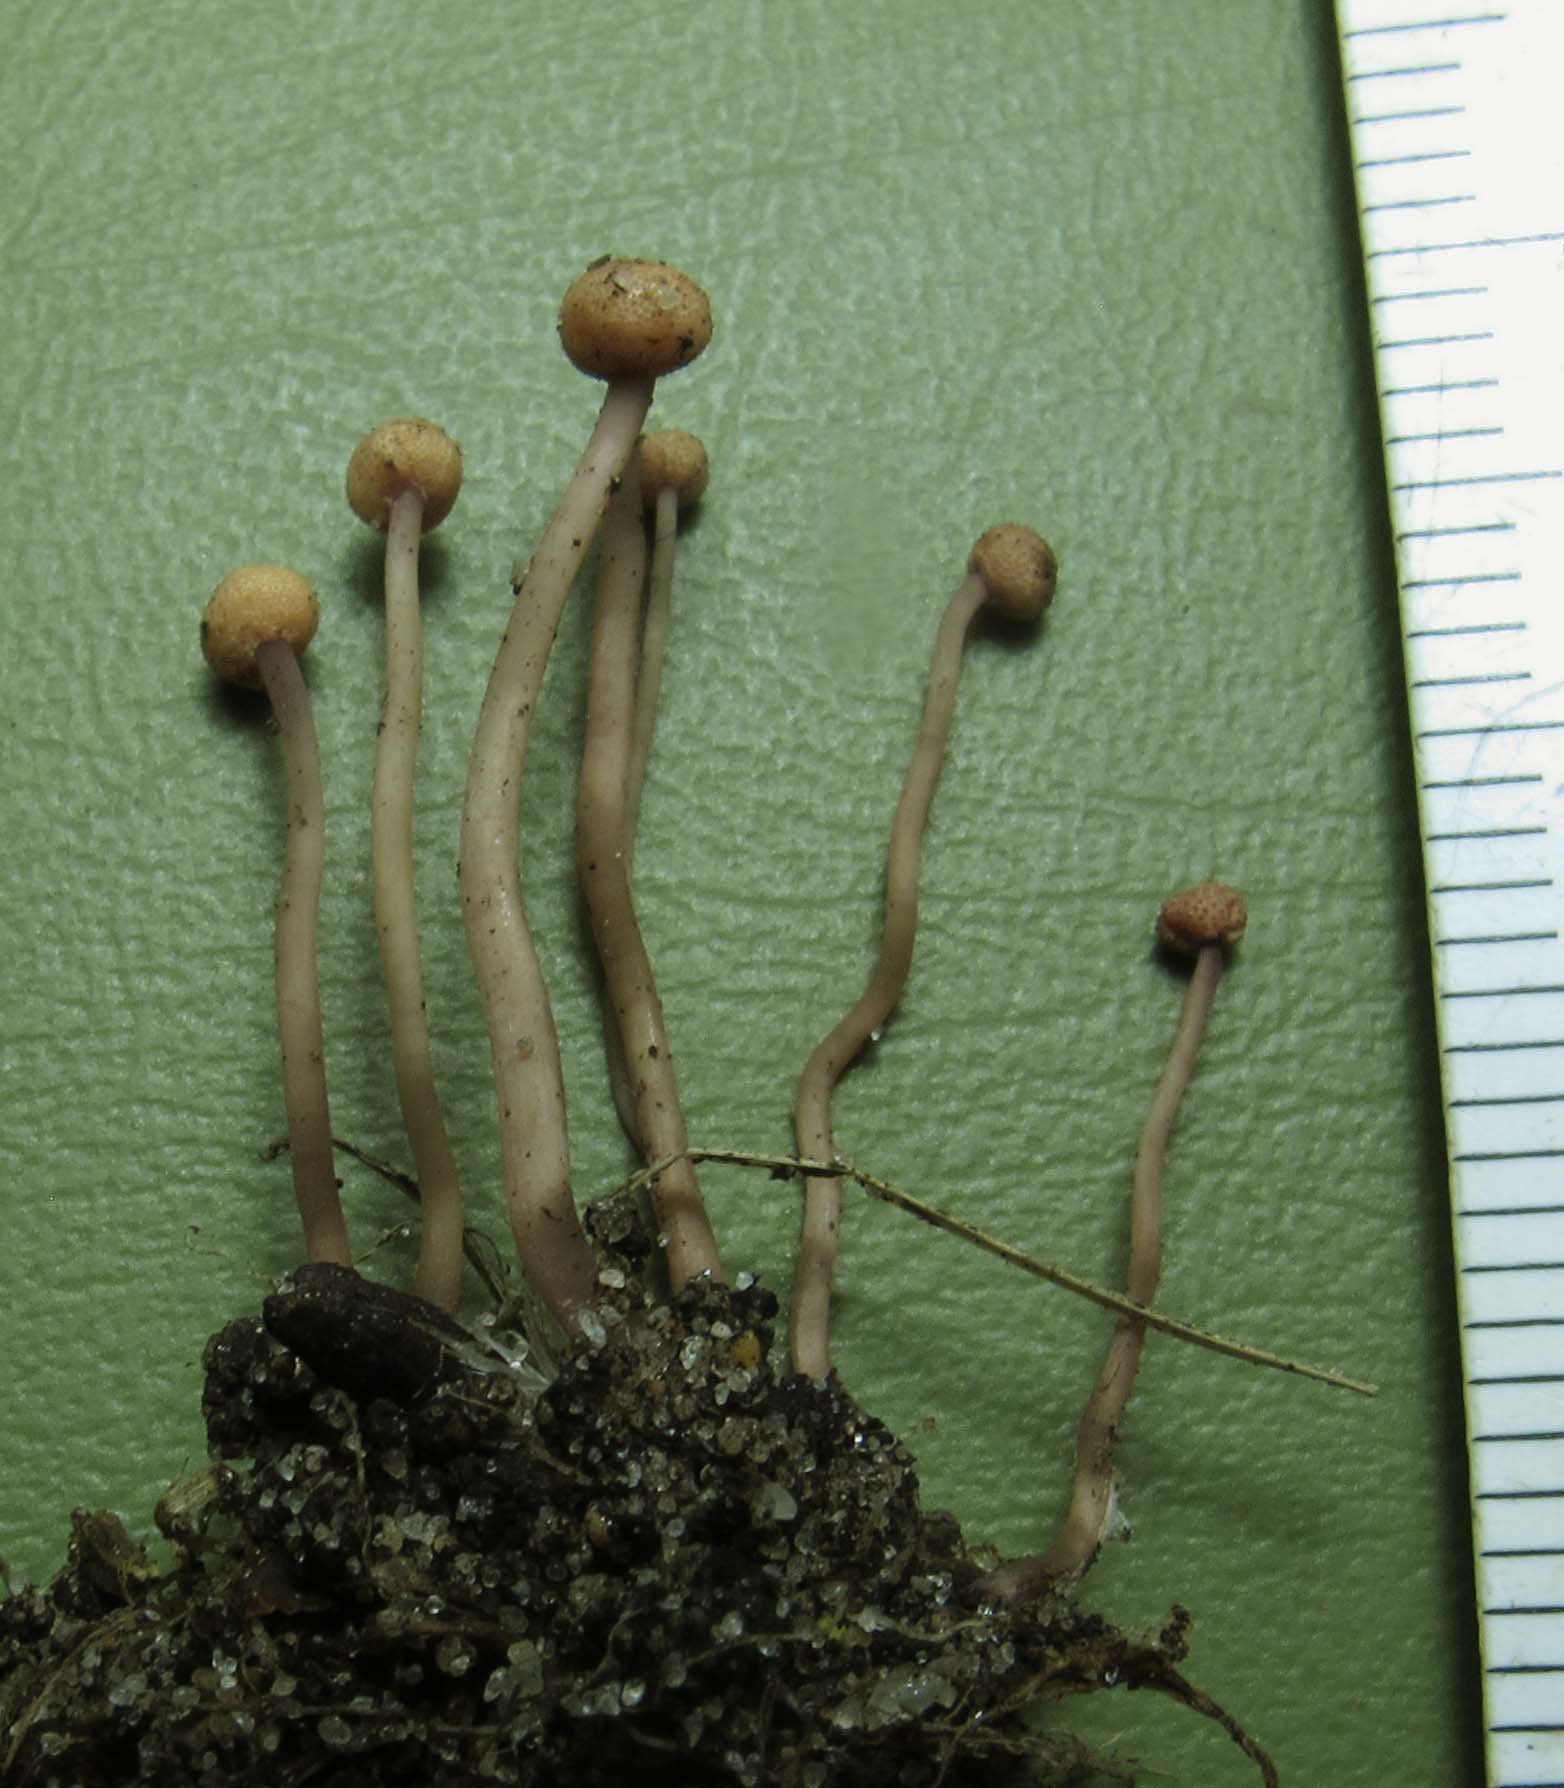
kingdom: Fungi
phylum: Ascomycota
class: Sordariomycetes
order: Hypocreales
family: Clavicipitaceae
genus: Claviceps
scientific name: Claviceps purpurea
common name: almindelig meldrøjer
